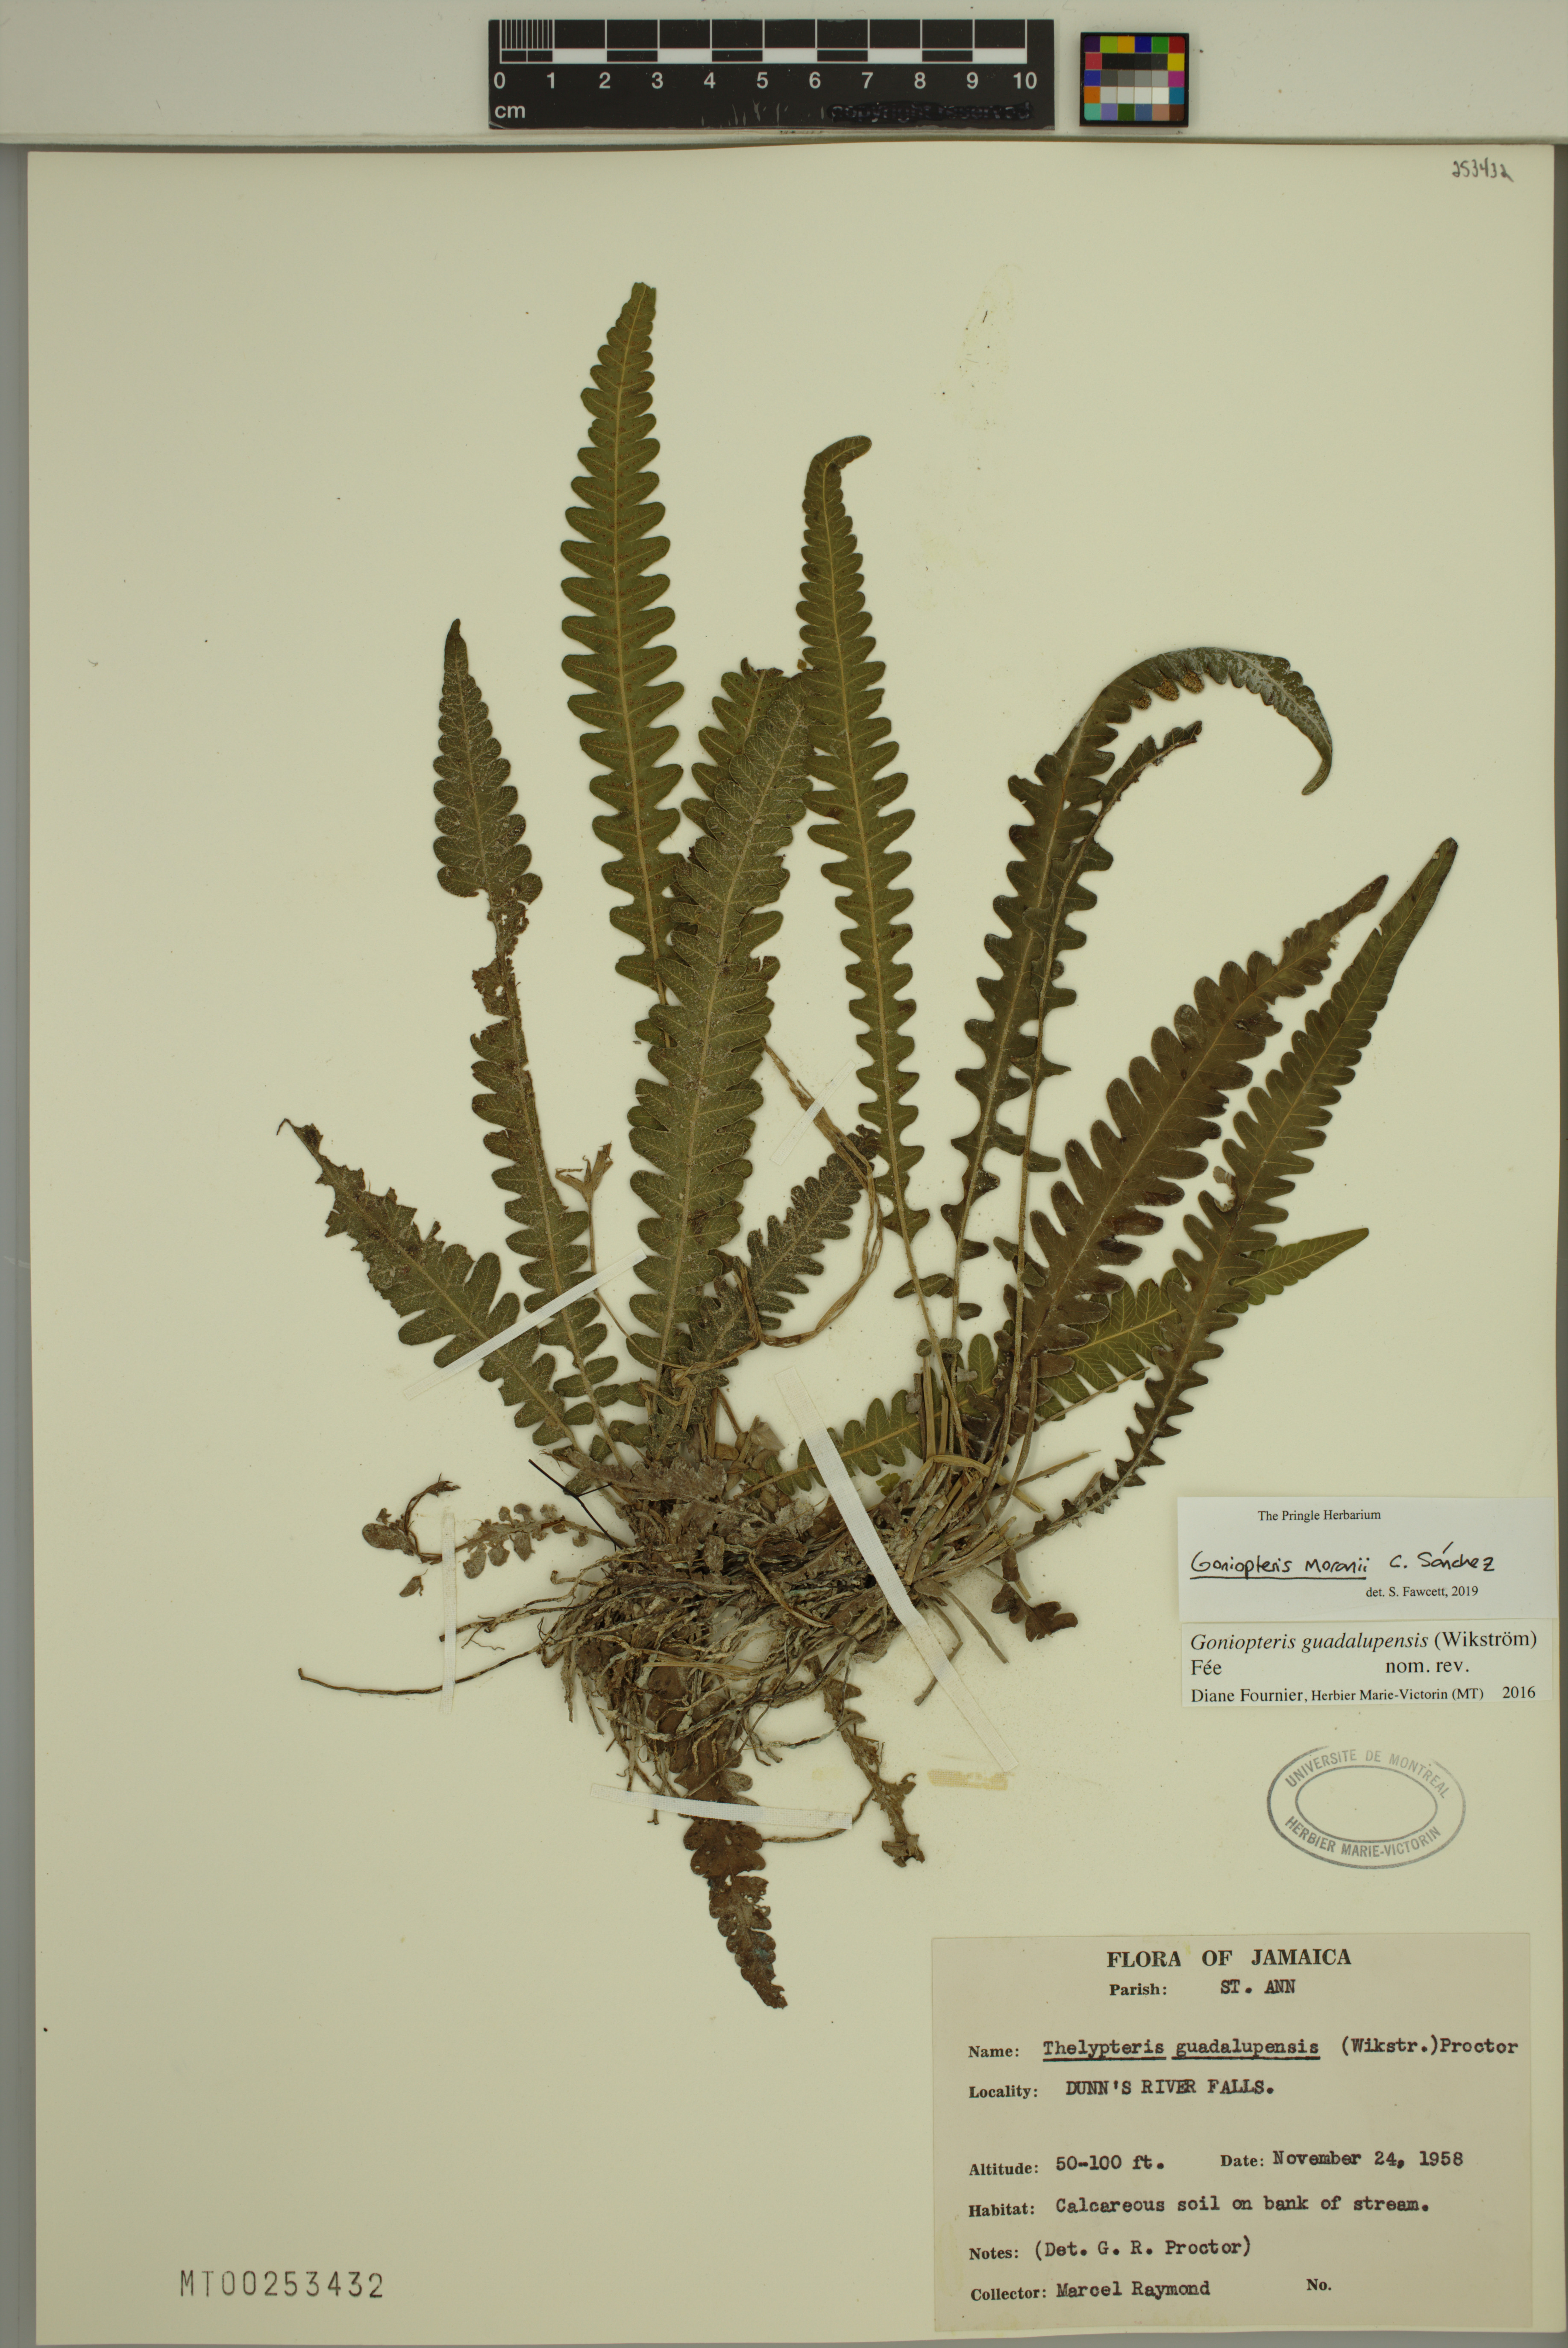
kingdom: Plantae
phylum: Tracheophyta
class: Polypodiopsida
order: Polypodiales
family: Thelypteridaceae
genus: Goniopteris
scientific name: Goniopteris domingensis
